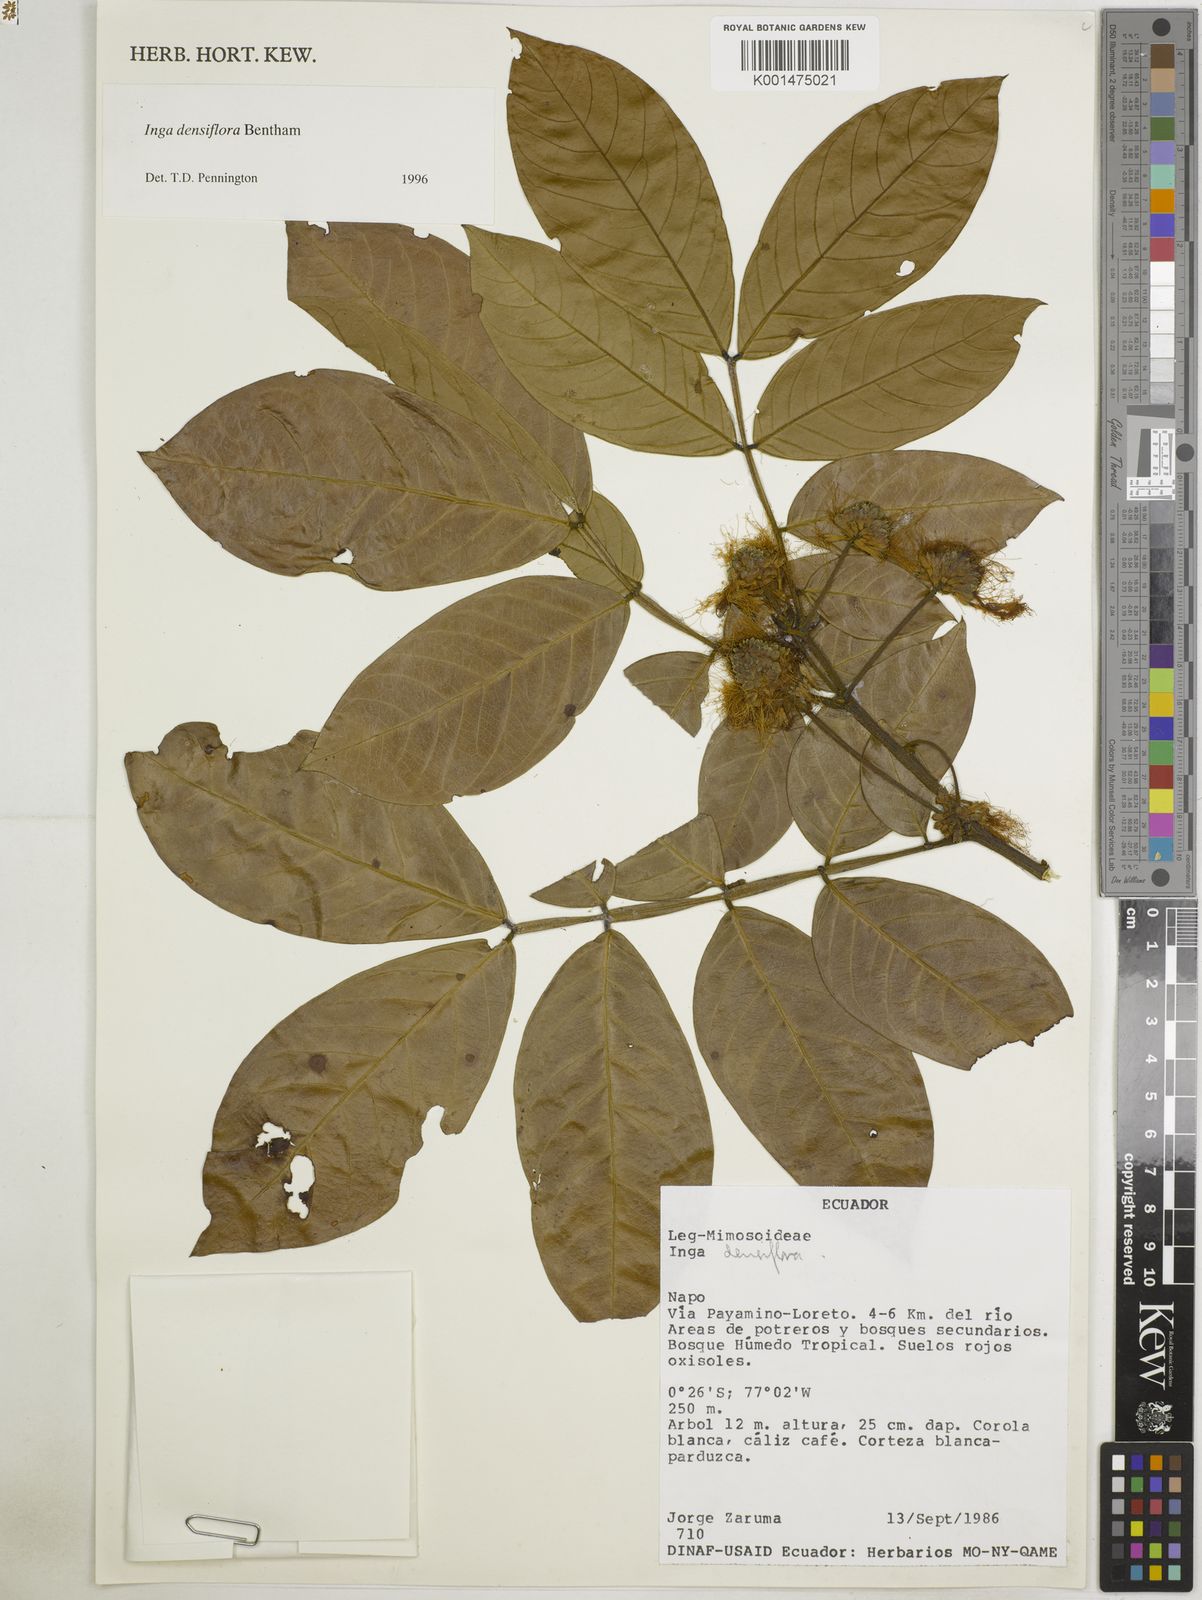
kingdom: Plantae
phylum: Tracheophyta
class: Magnoliopsida
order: Fabales
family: Fabaceae
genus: Inga
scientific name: Inga densiflora
